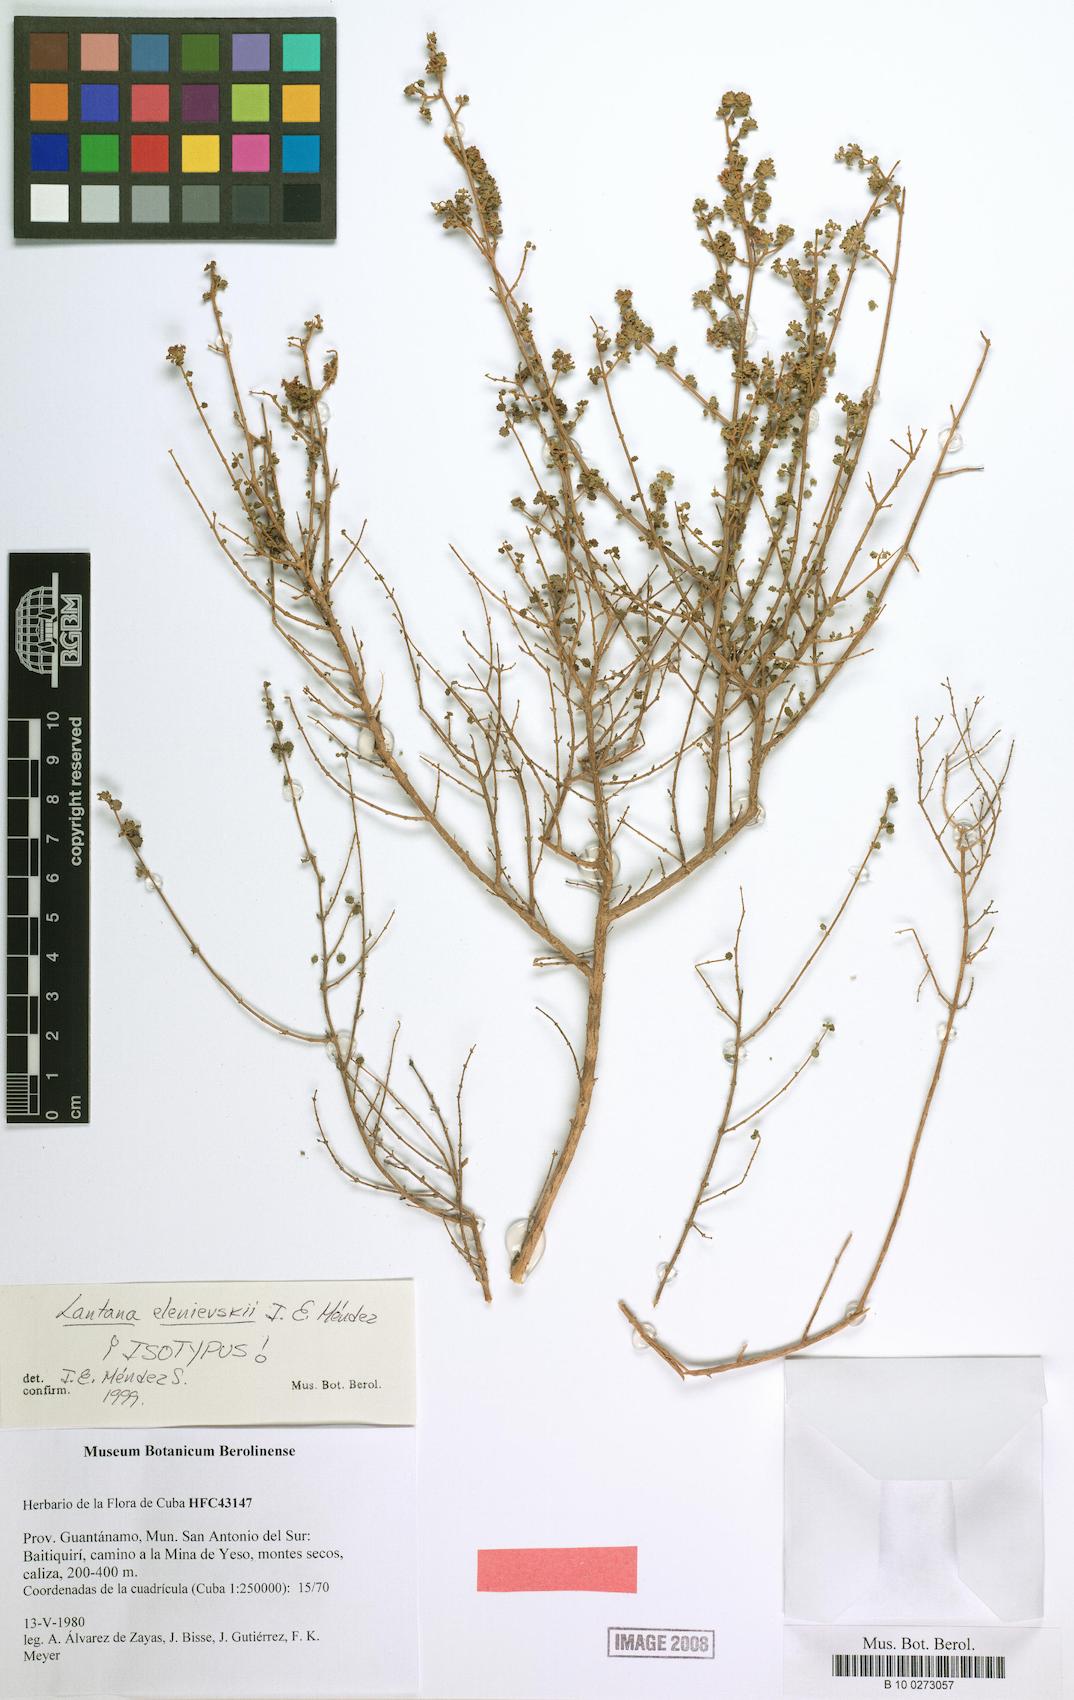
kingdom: Plantae
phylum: Tracheophyta
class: Magnoliopsida
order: Lamiales
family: Verbenaceae
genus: Lantana
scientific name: Lantana elenievskii
